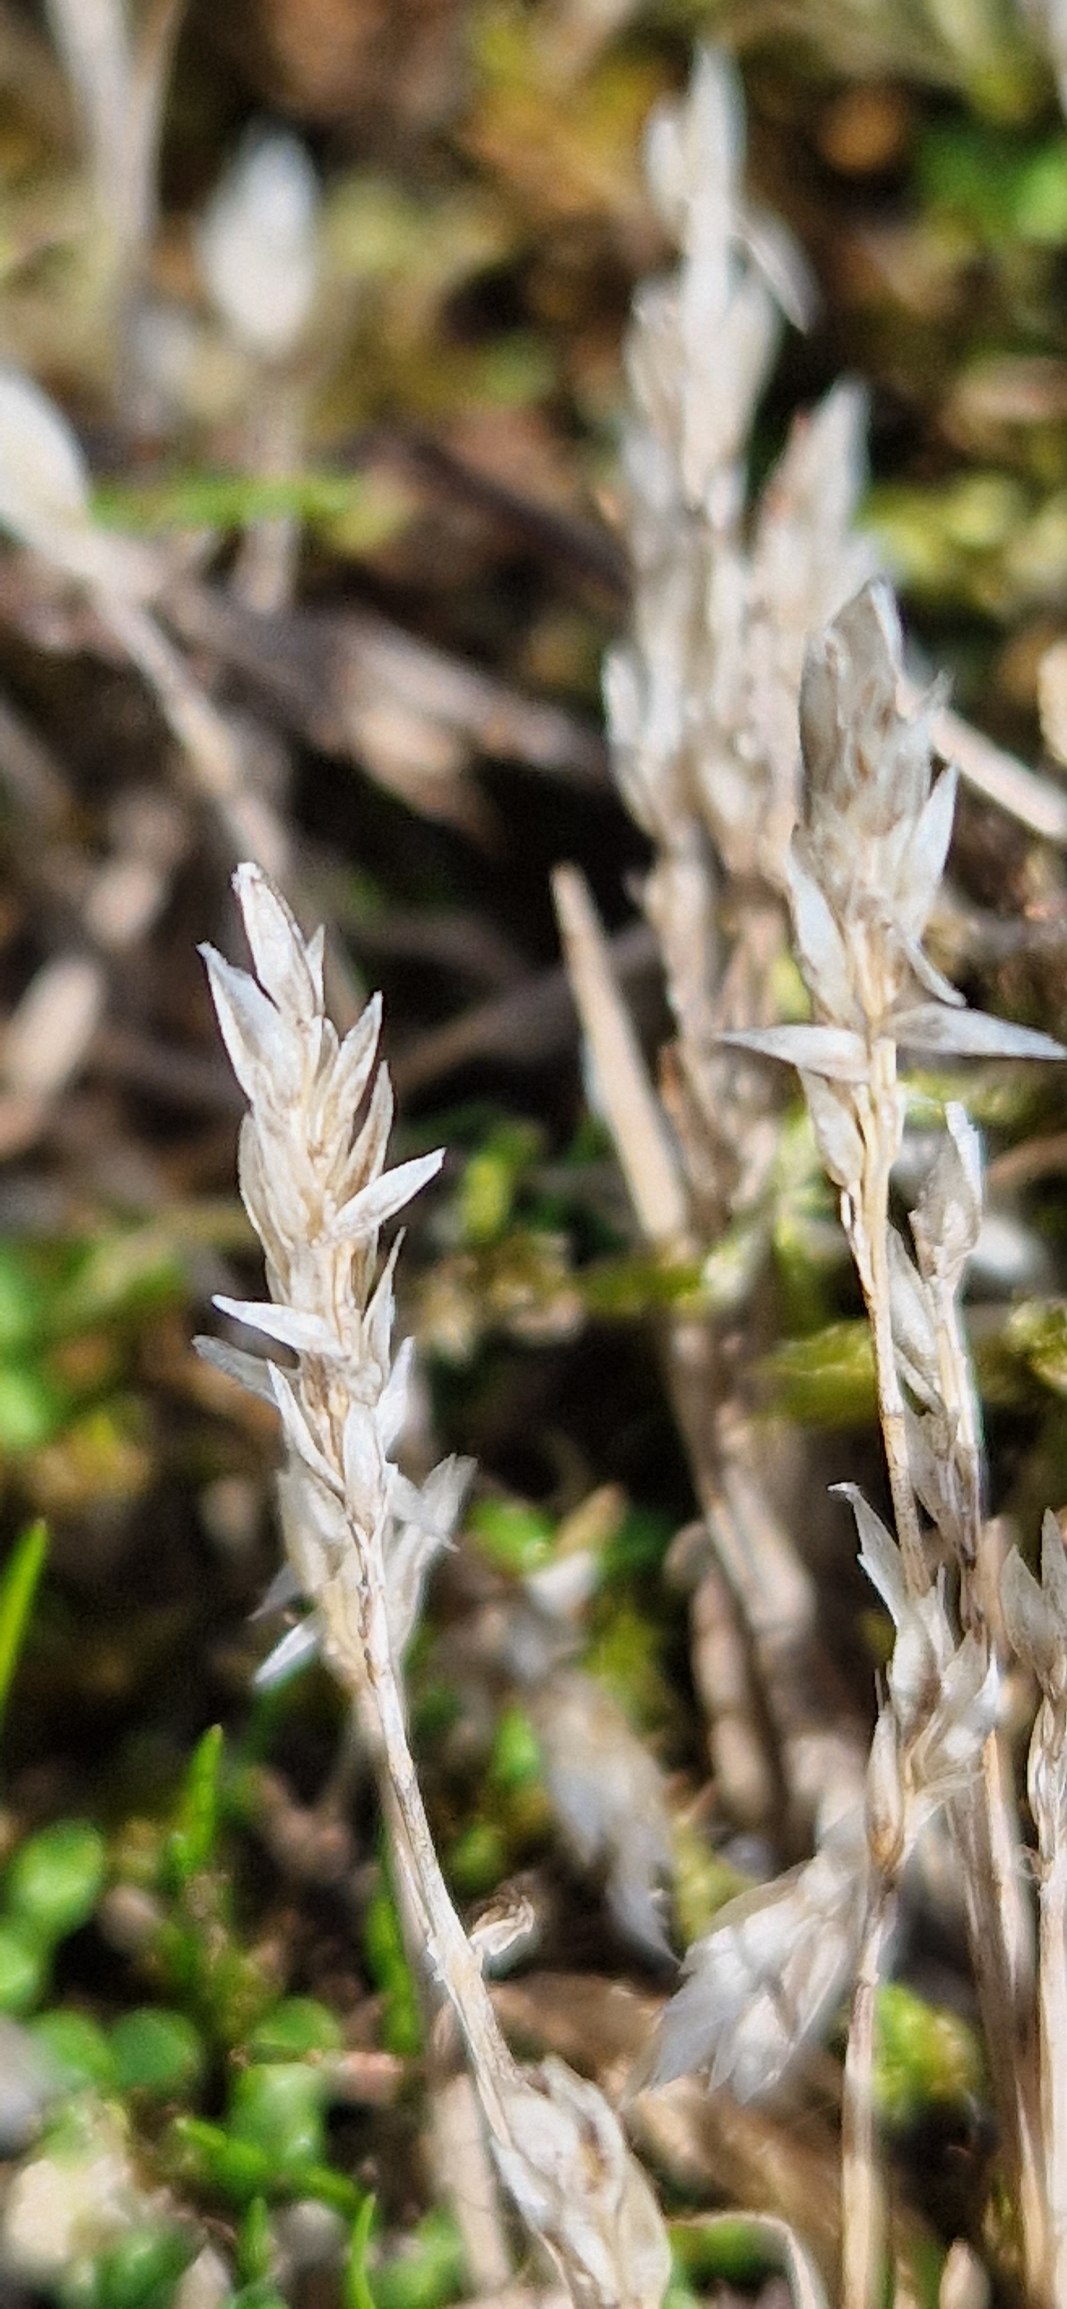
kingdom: Plantae
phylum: Tracheophyta
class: Liliopsida
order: Poales
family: Poaceae
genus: Aira
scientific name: Aira praecox
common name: Tidlig dværgbunke
